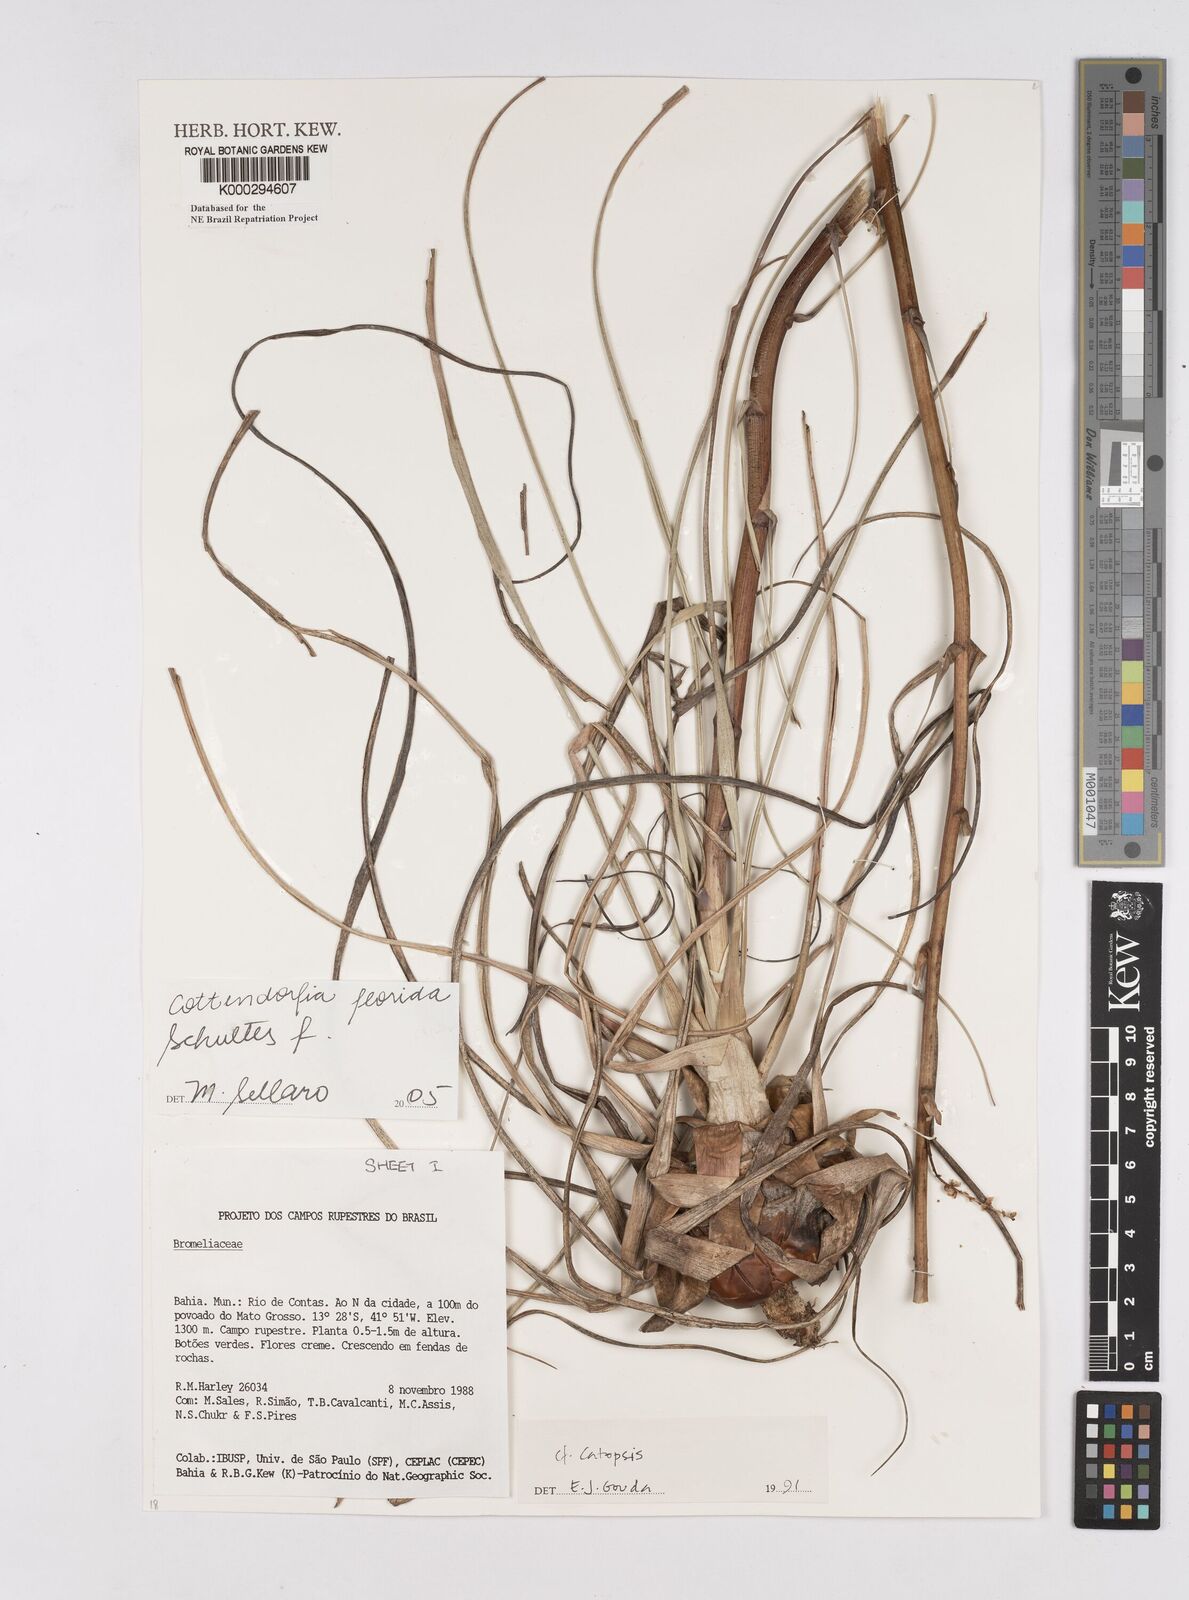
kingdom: Plantae
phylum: Tracheophyta
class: Liliopsida
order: Poales
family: Bromeliaceae
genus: Cottendorfia
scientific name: Cottendorfia florida
